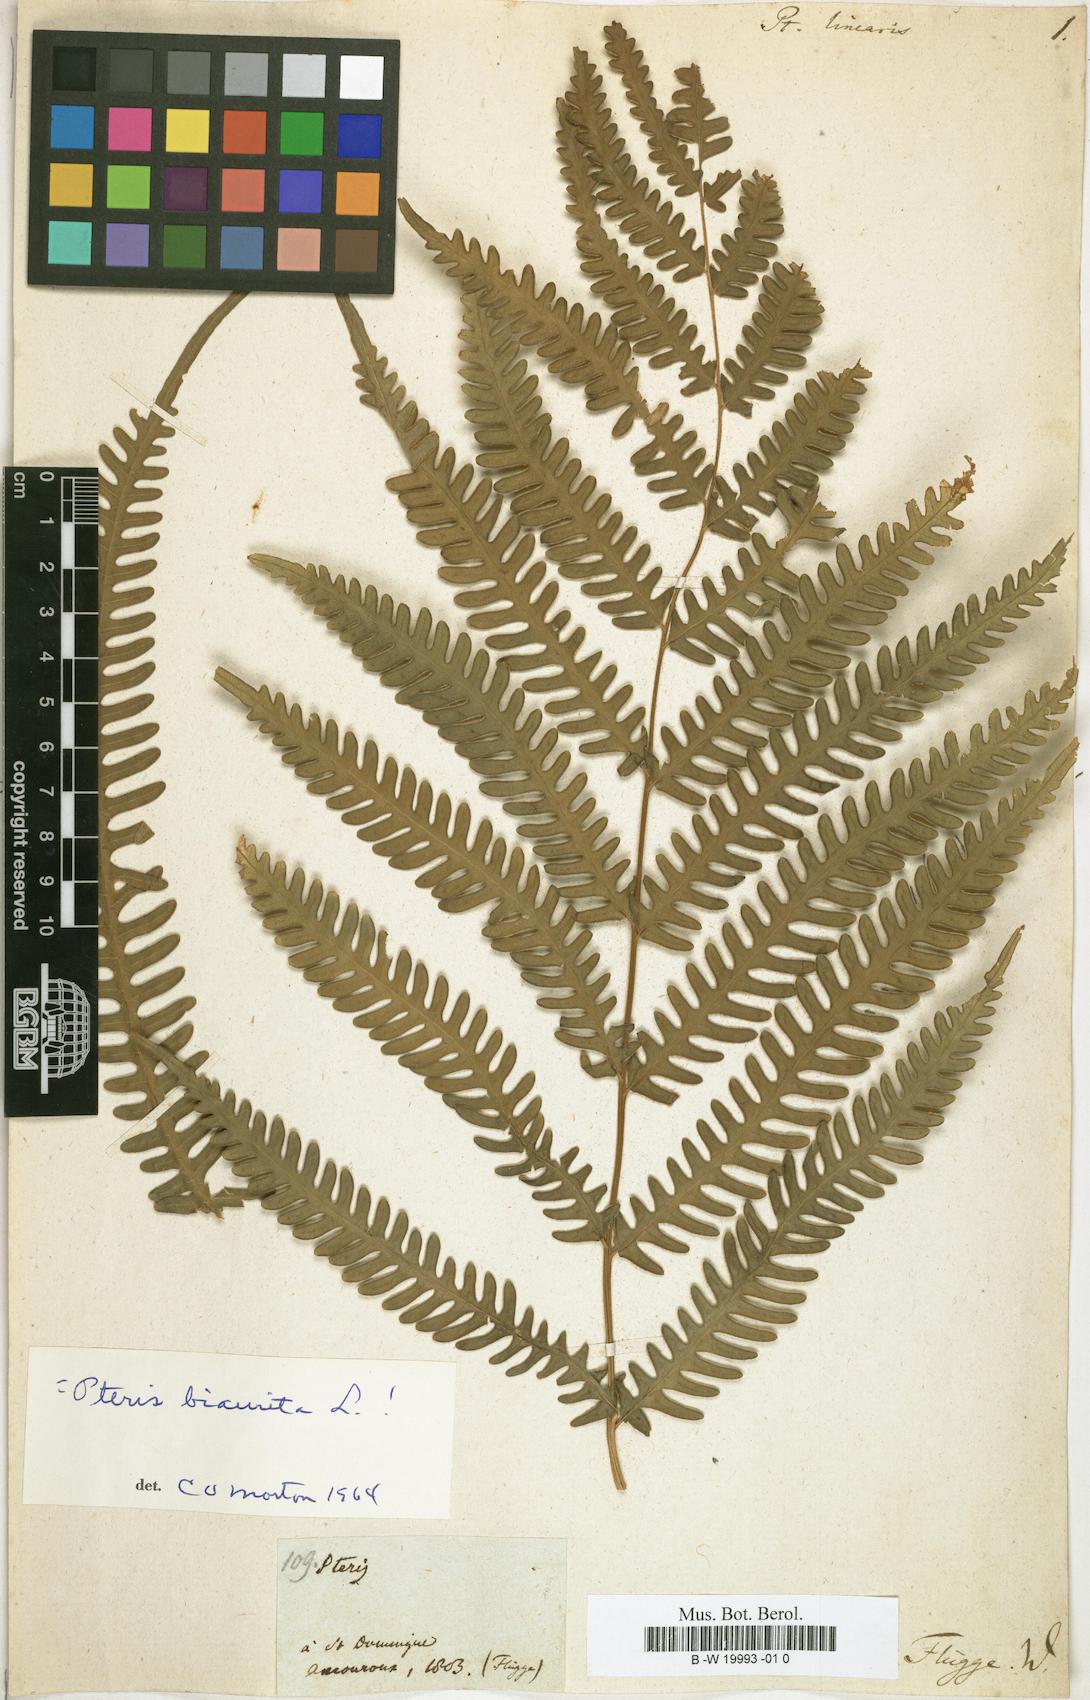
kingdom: Plantae
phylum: Tracheophyta
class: Polypodiopsida
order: Polypodiales
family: Pteridaceae
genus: Pteris
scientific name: Pteris linearis
